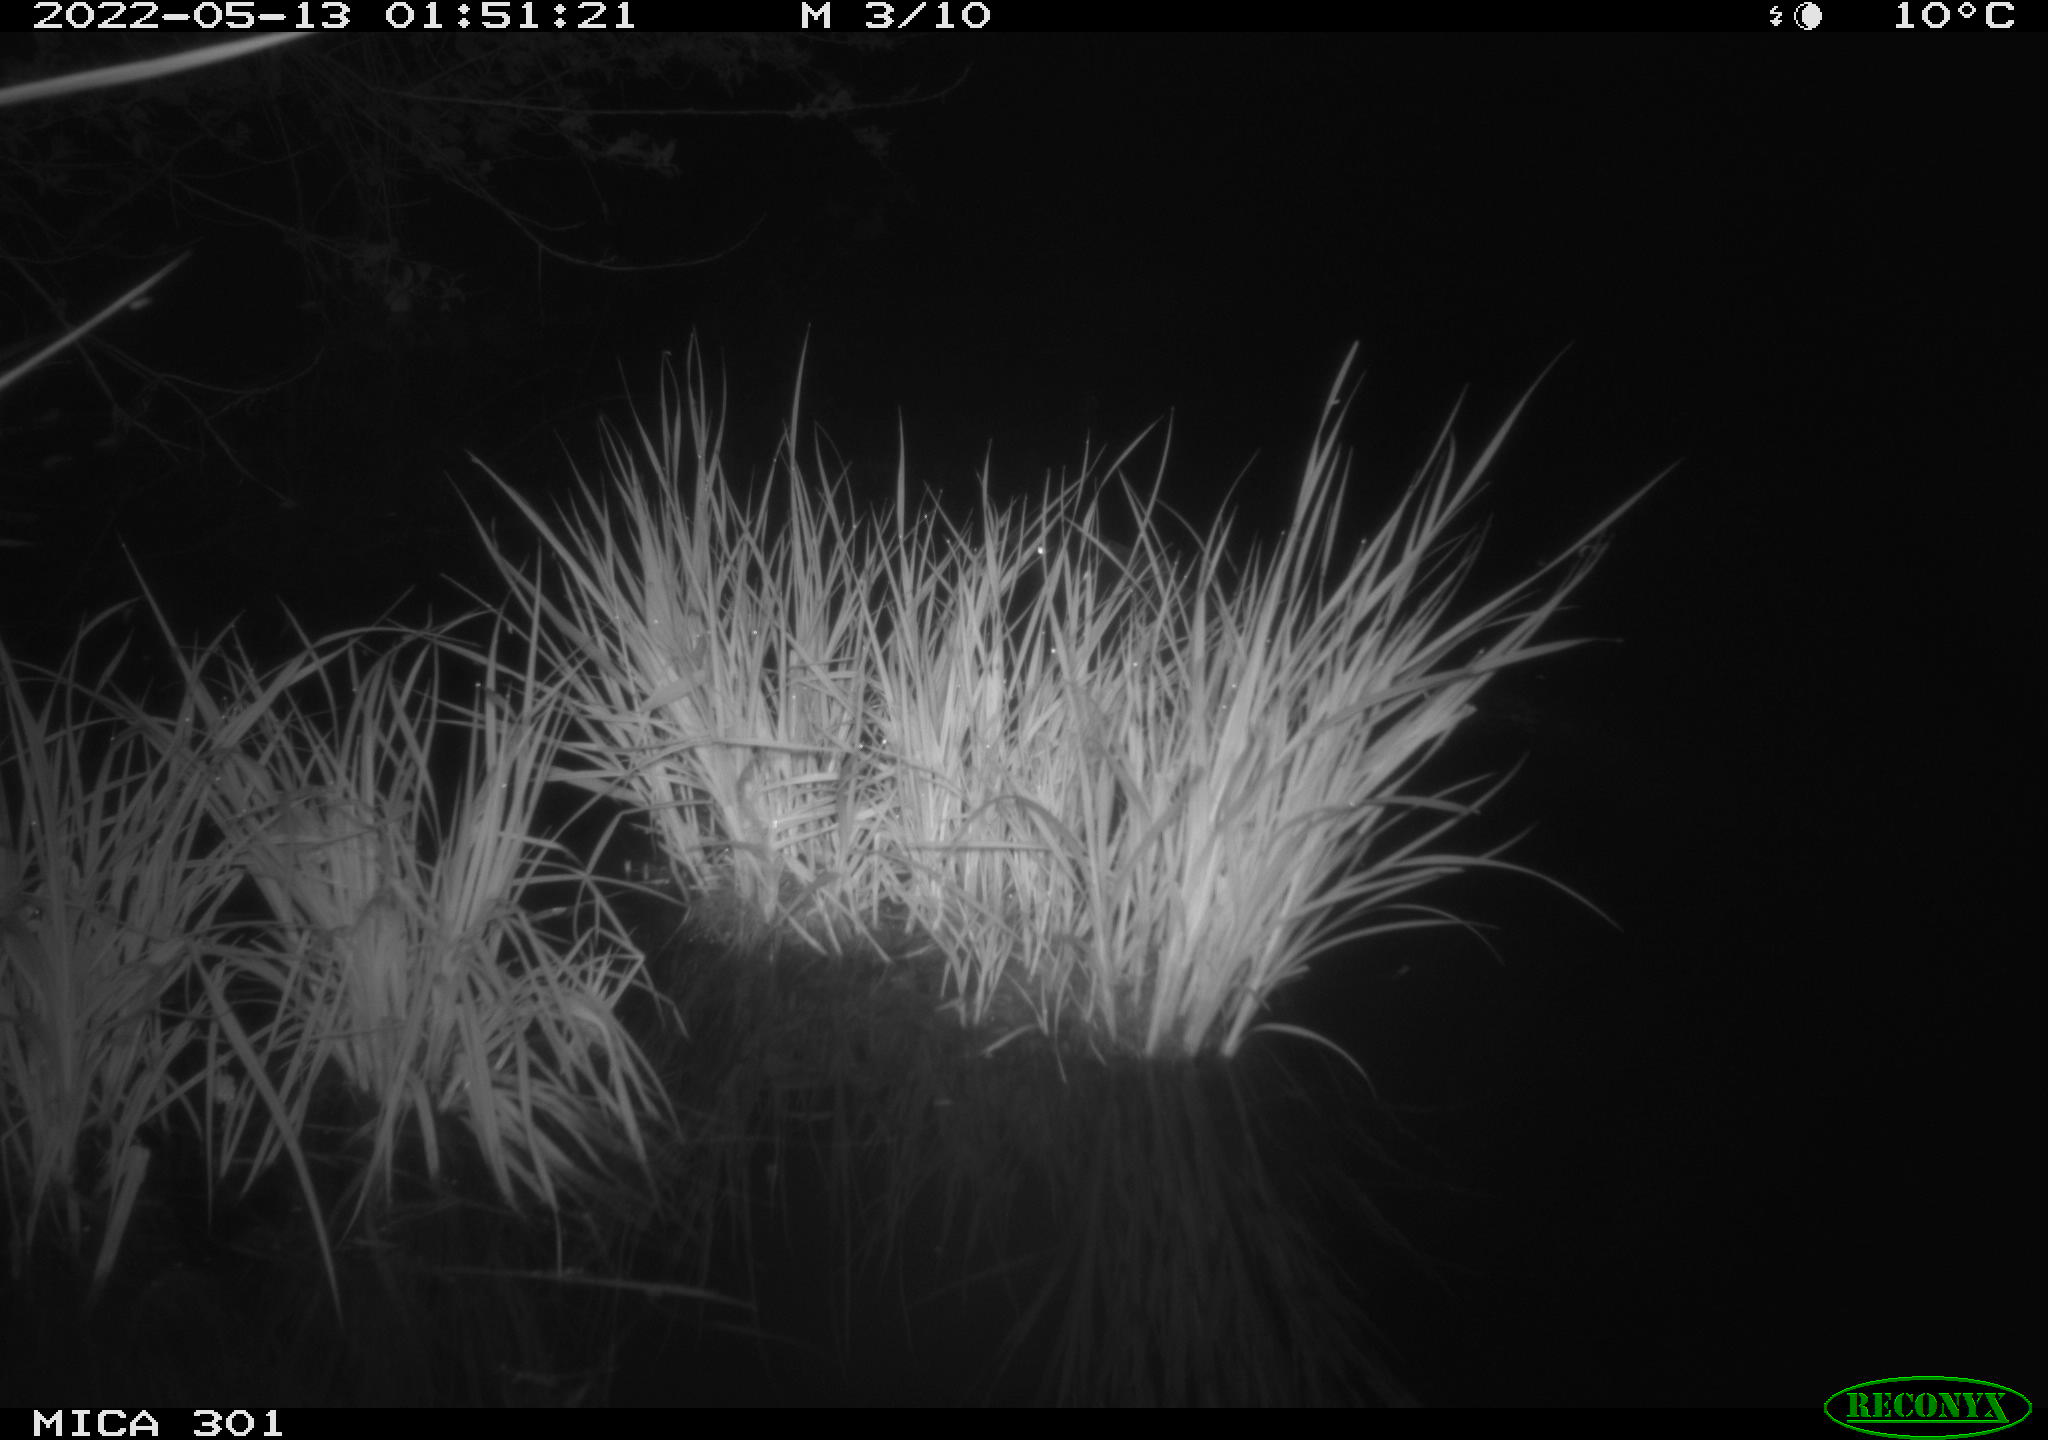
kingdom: Animalia
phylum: Chordata
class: Mammalia
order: Rodentia
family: Castoridae
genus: Castor
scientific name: Castor fiber
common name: Eurasian beaver
